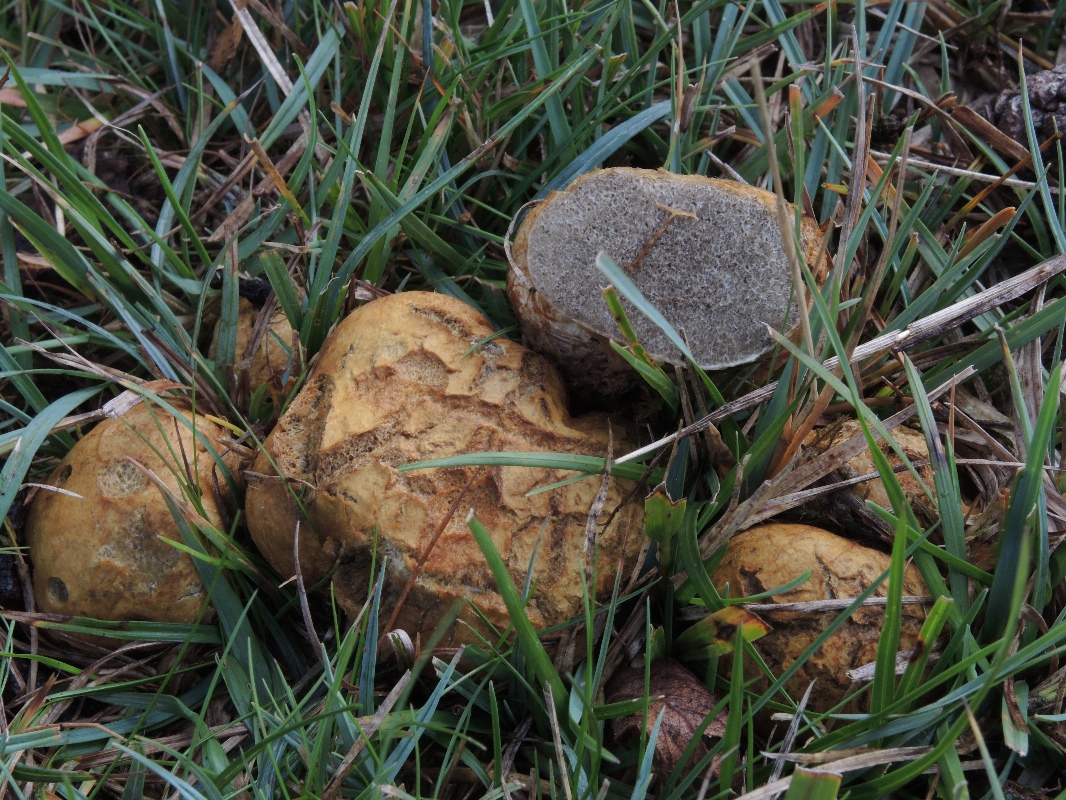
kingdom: Fungi
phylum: Basidiomycota
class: Agaricomycetes
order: Boletales
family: Rhizopogonaceae
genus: Rhizopogon
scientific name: Rhizopogon obtextus
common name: gul skægtrøffel
